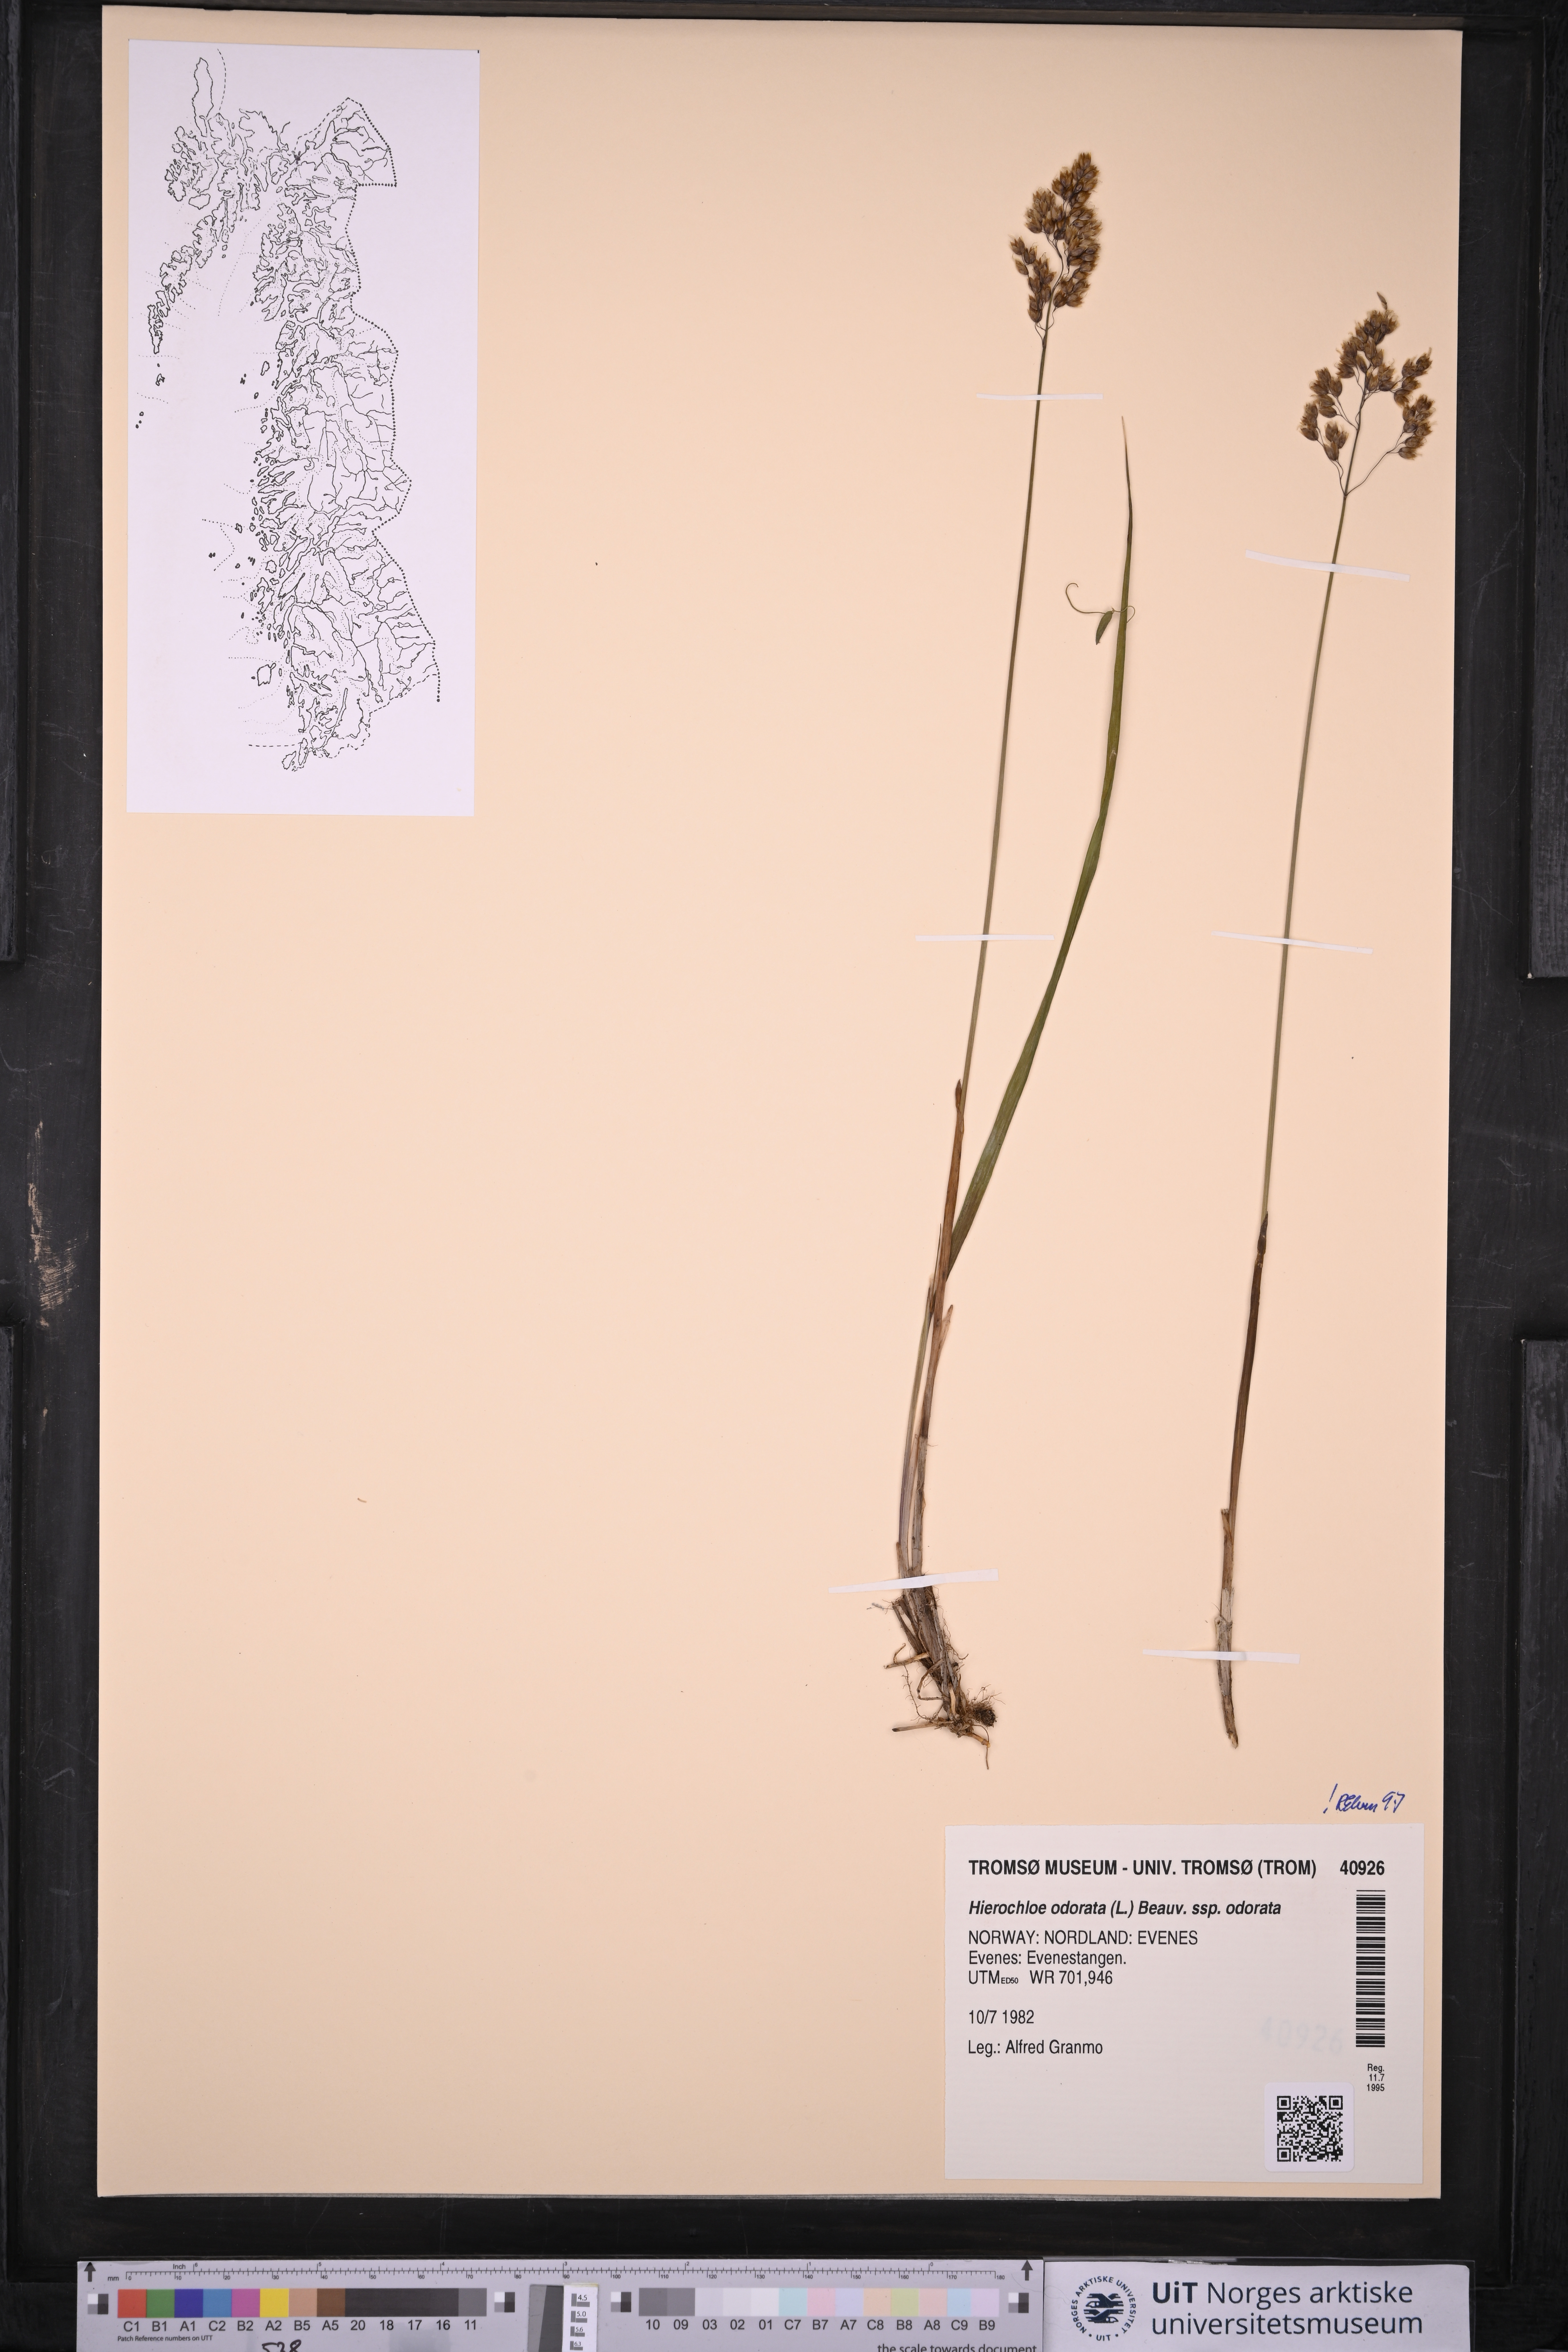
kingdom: Plantae
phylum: Tracheophyta
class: Liliopsida
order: Poales
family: Poaceae
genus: Anthoxanthum
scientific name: Anthoxanthum nitens
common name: Holy grass
